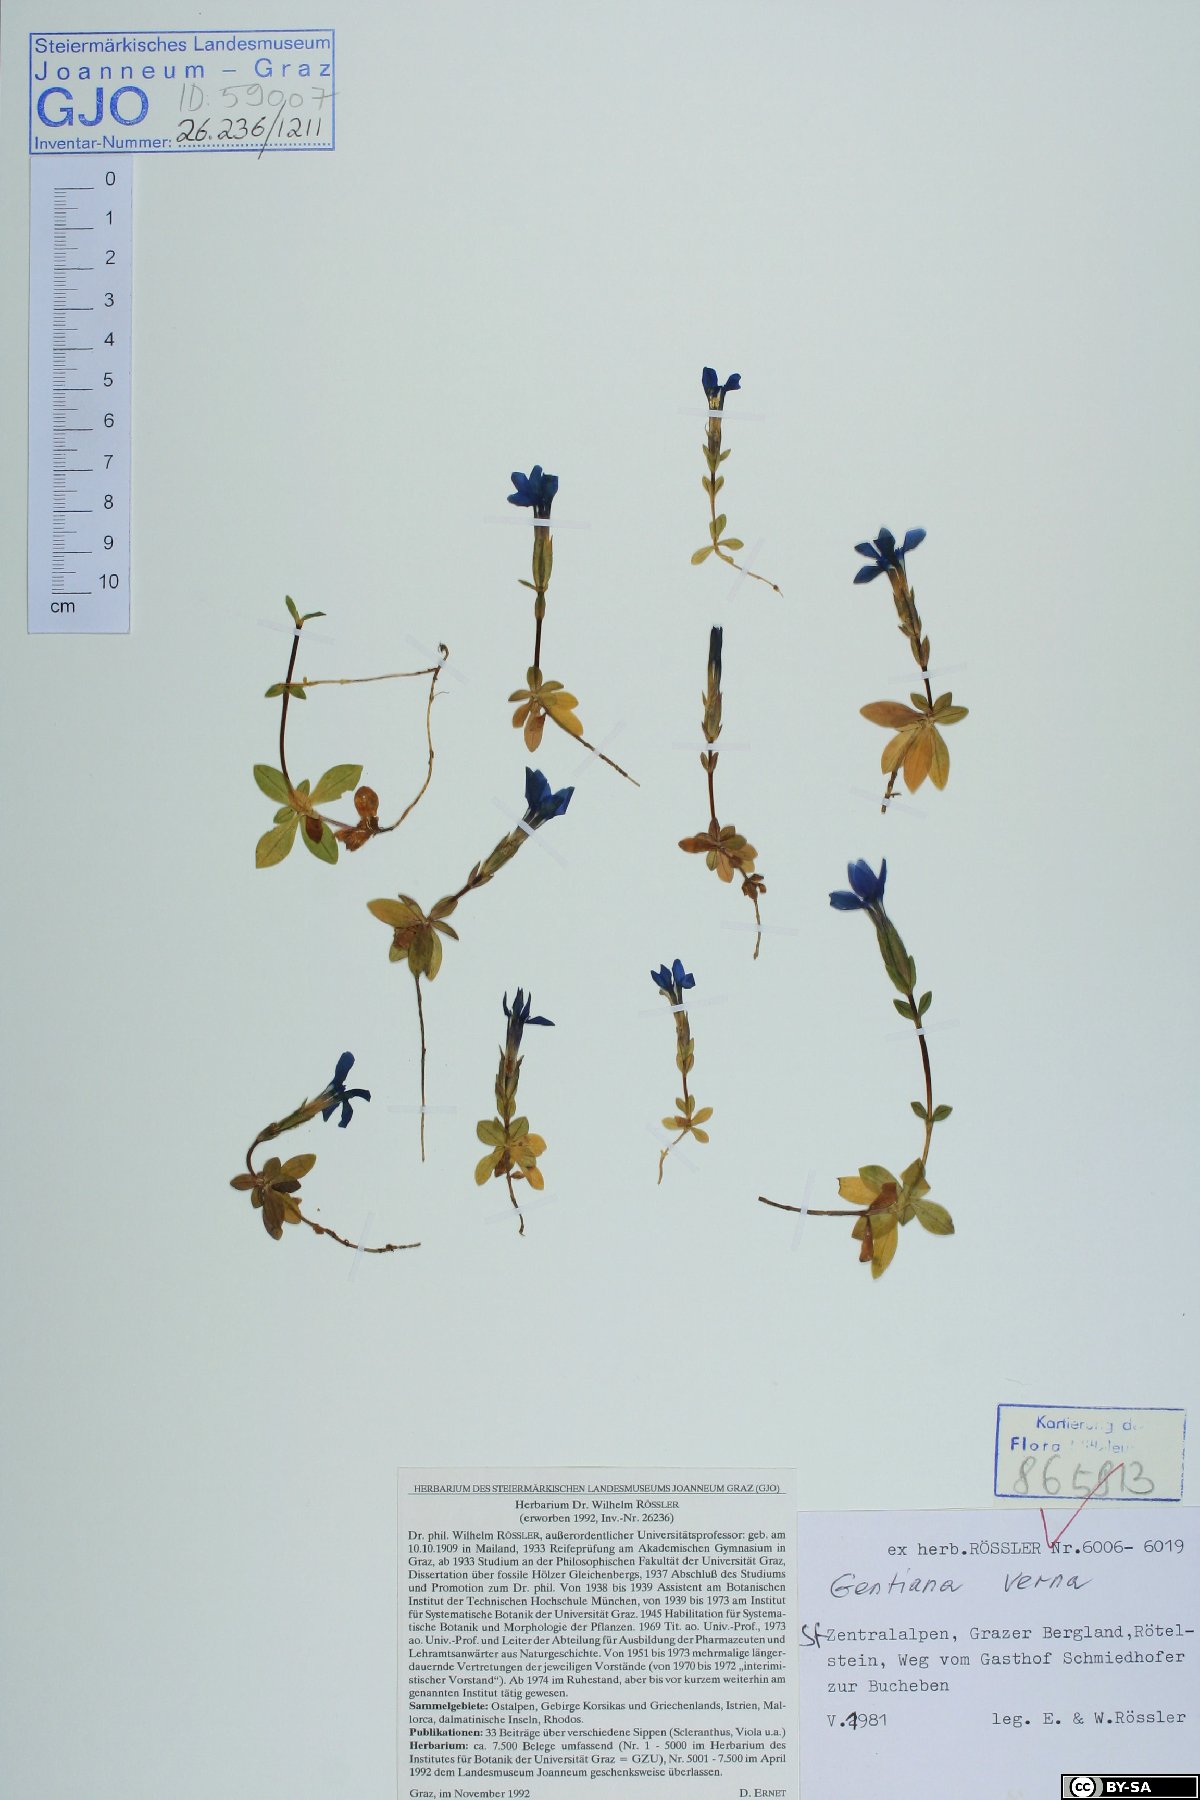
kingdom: Plantae
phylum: Tracheophyta
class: Magnoliopsida
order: Gentianales
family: Gentianaceae
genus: Gentiana
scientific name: Gentiana verna
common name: Spring gentian
